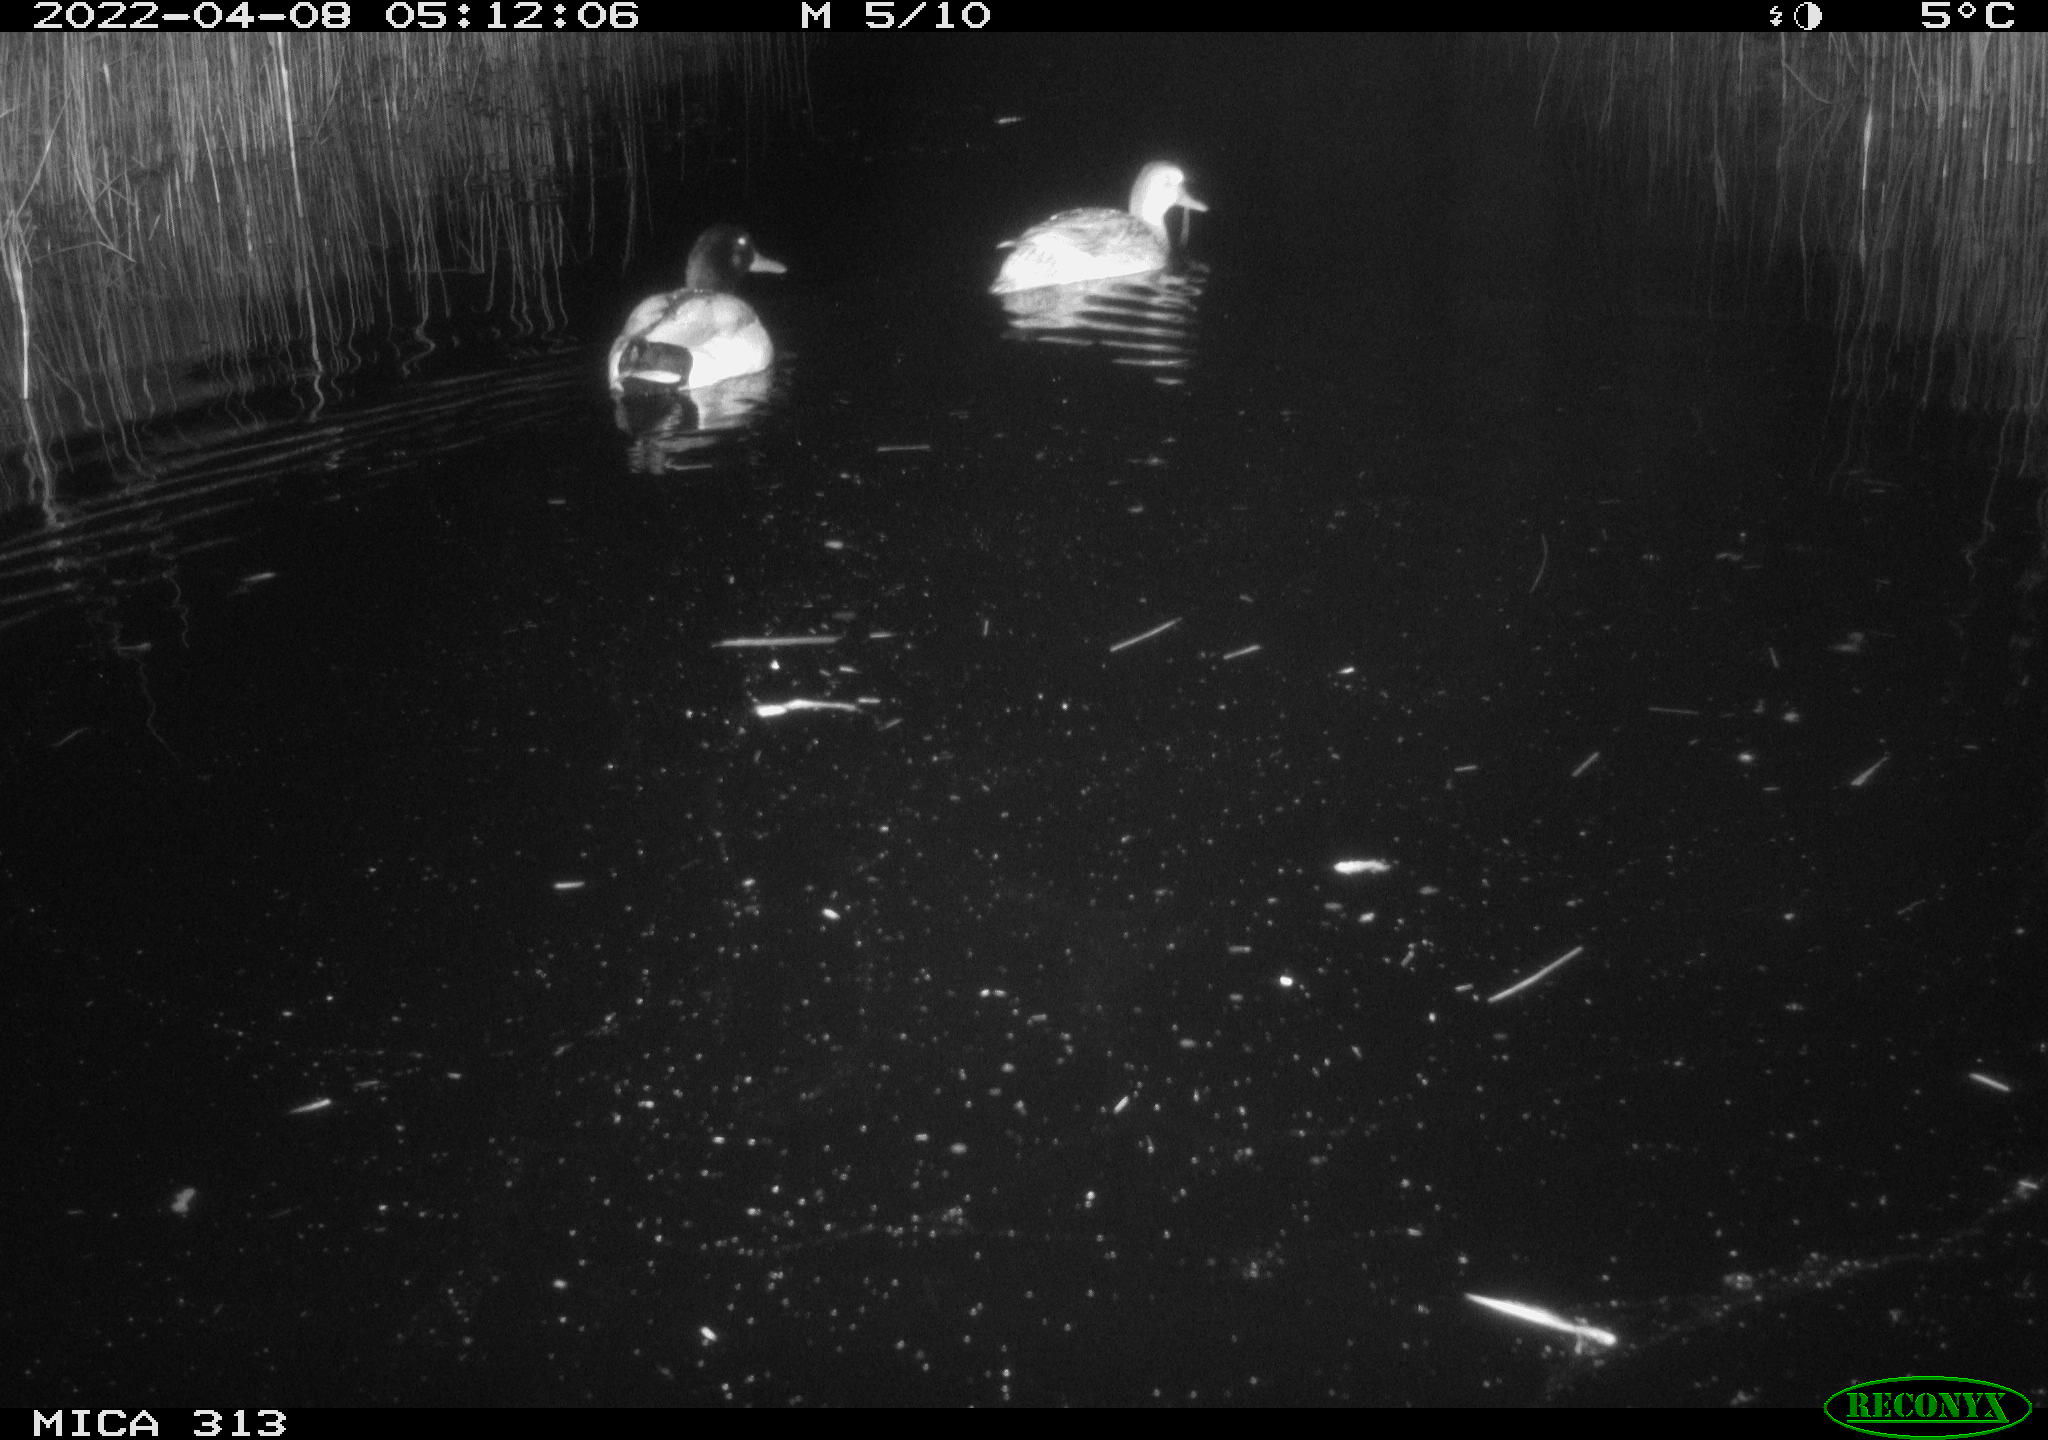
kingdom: Animalia
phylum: Chordata
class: Aves
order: Anseriformes
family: Anatidae
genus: Mareca
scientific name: Mareca strepera
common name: Gadwall
